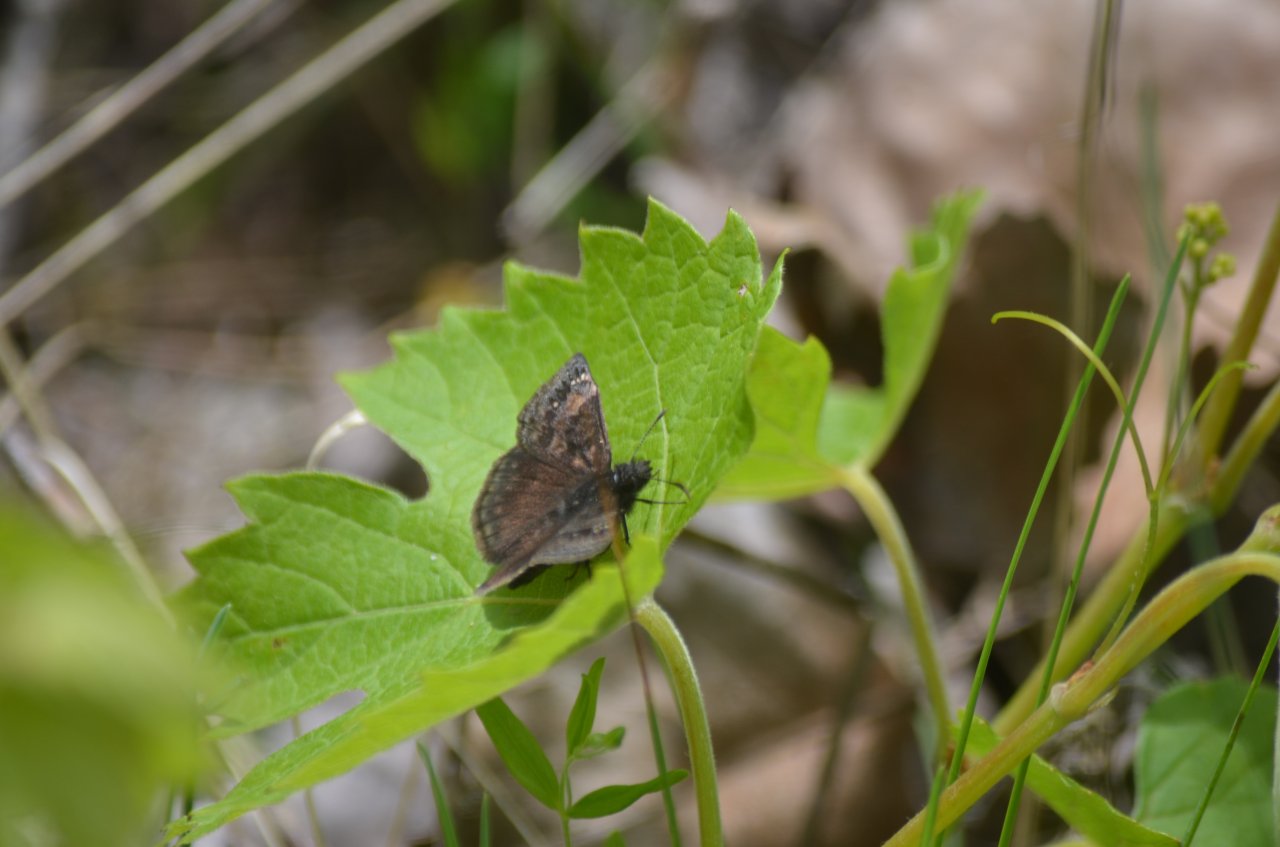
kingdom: Animalia
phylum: Arthropoda
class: Insecta
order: Lepidoptera
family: Hesperiidae
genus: Erynnis
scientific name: Erynnis
